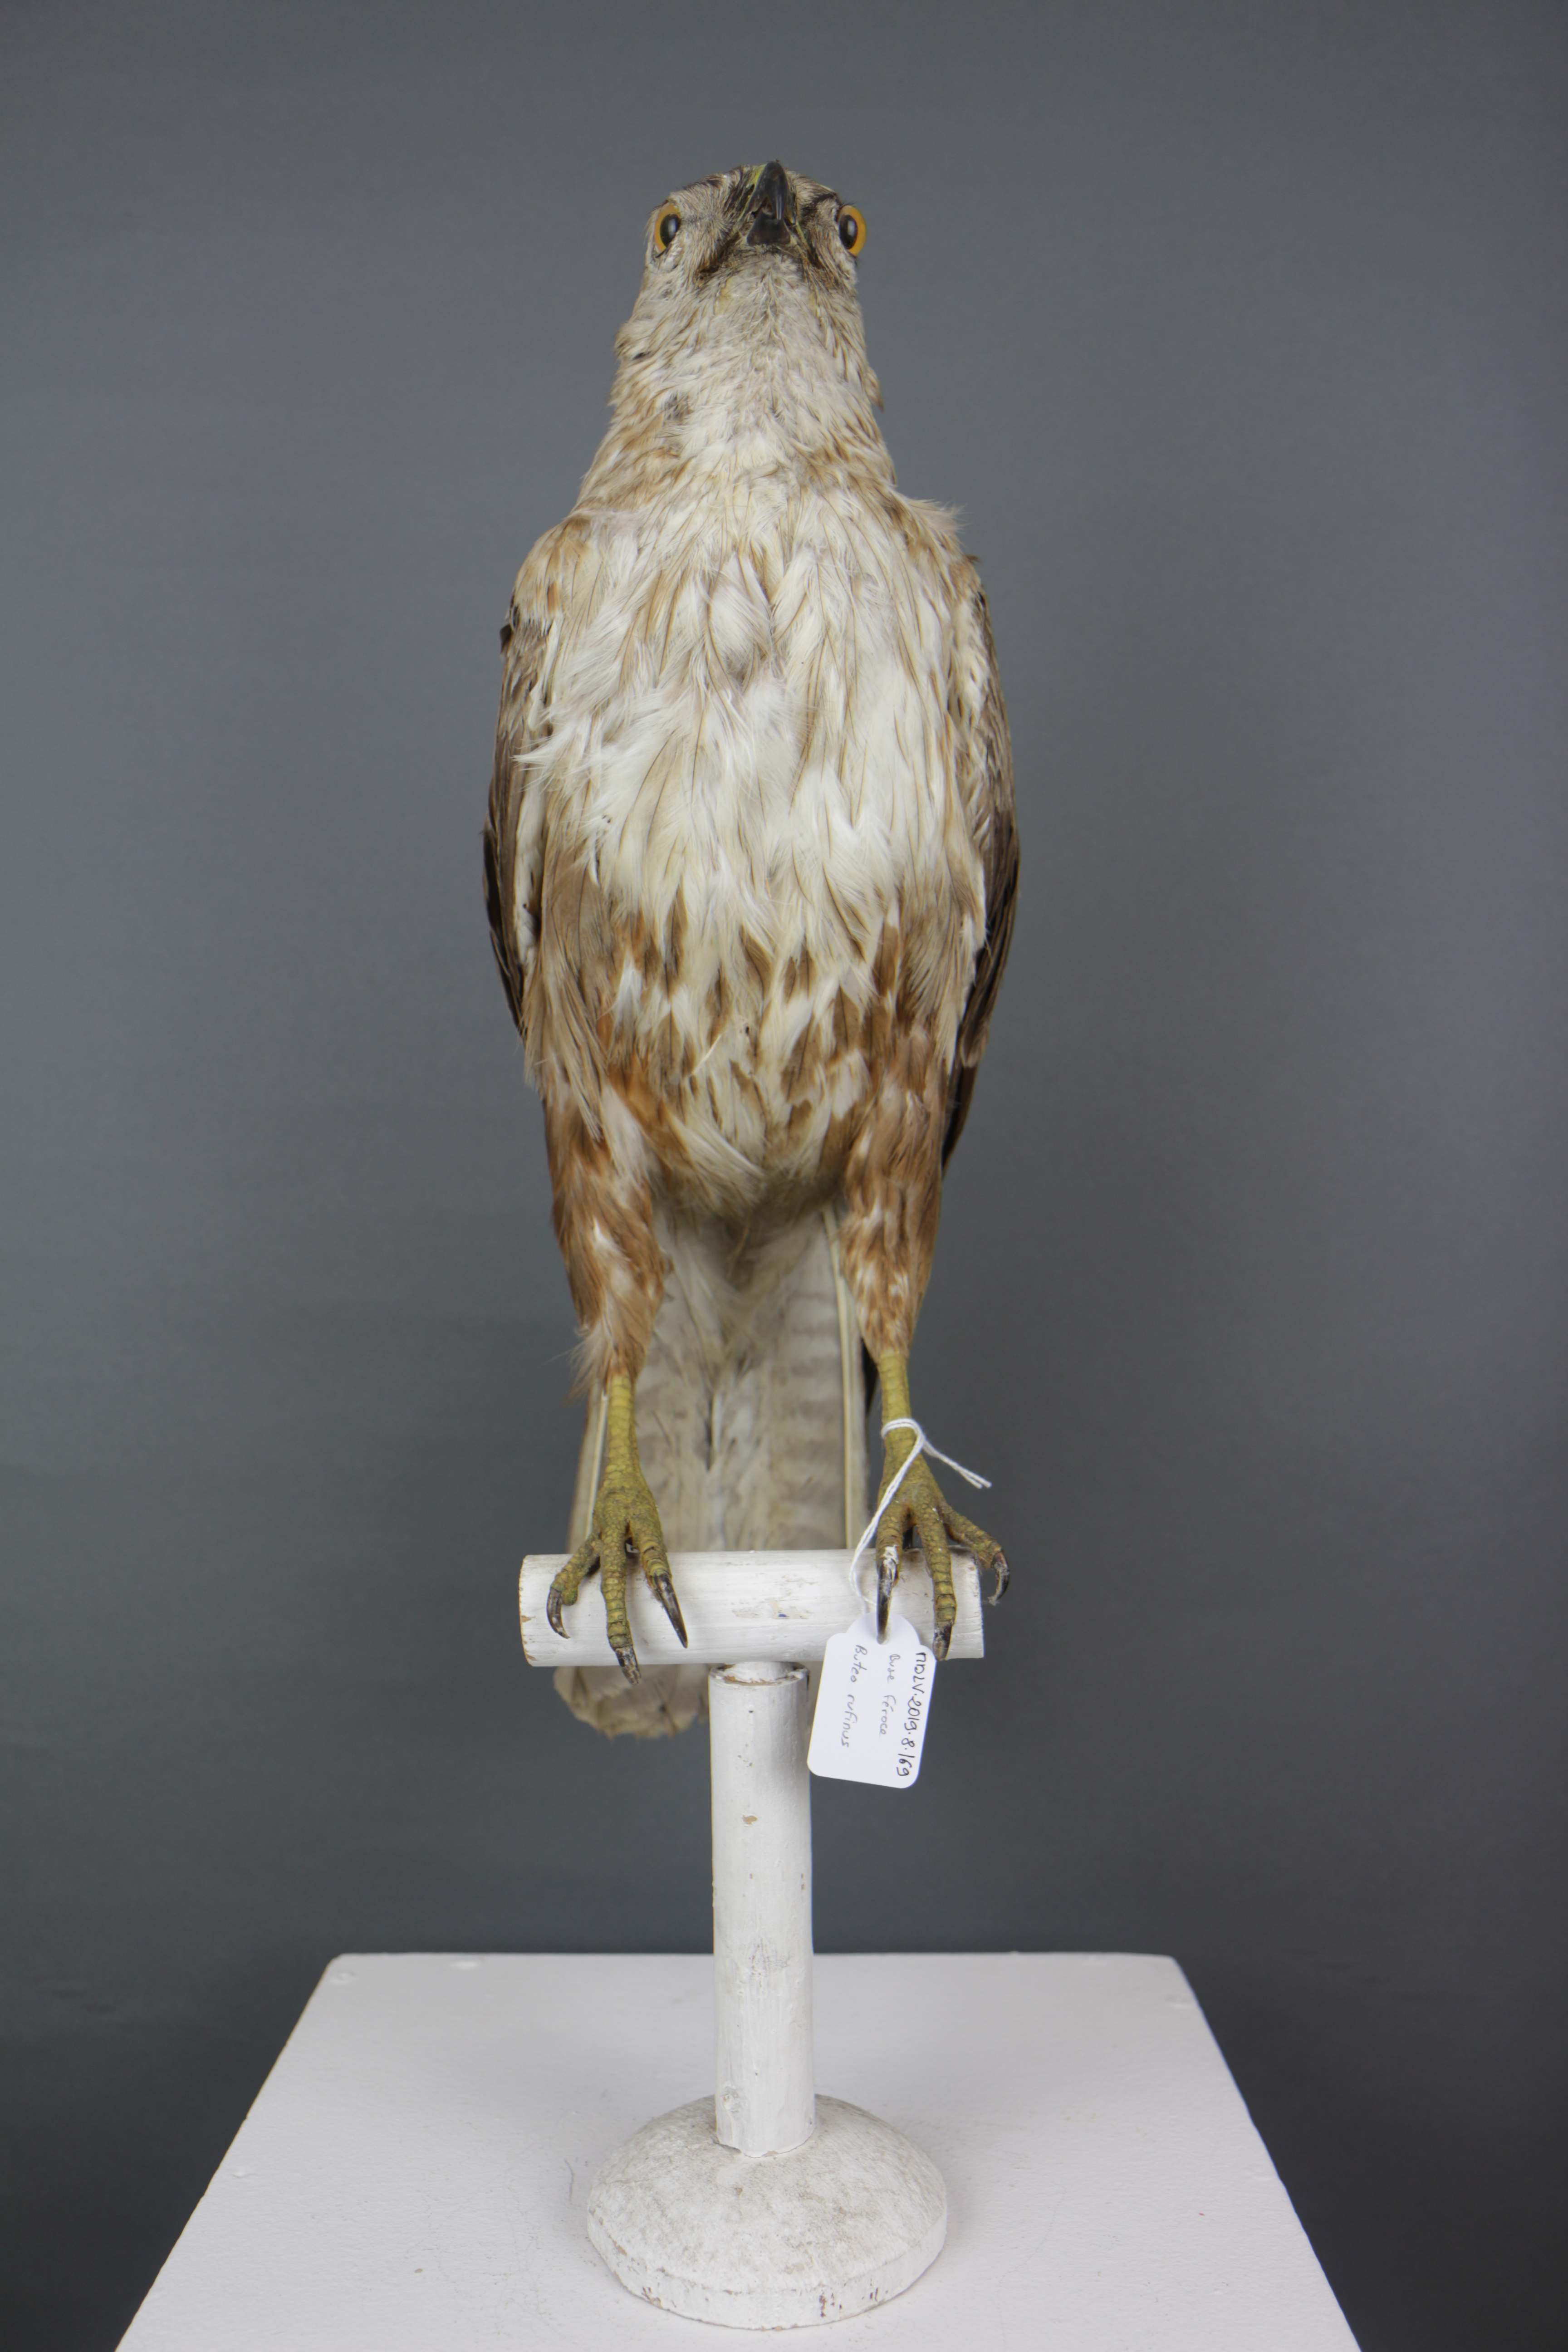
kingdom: Animalia
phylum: Chordata
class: Aves
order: Accipitriformes
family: Accipitridae
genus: Buteo
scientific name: Buteo rufinus
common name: Long-legged buzzard
